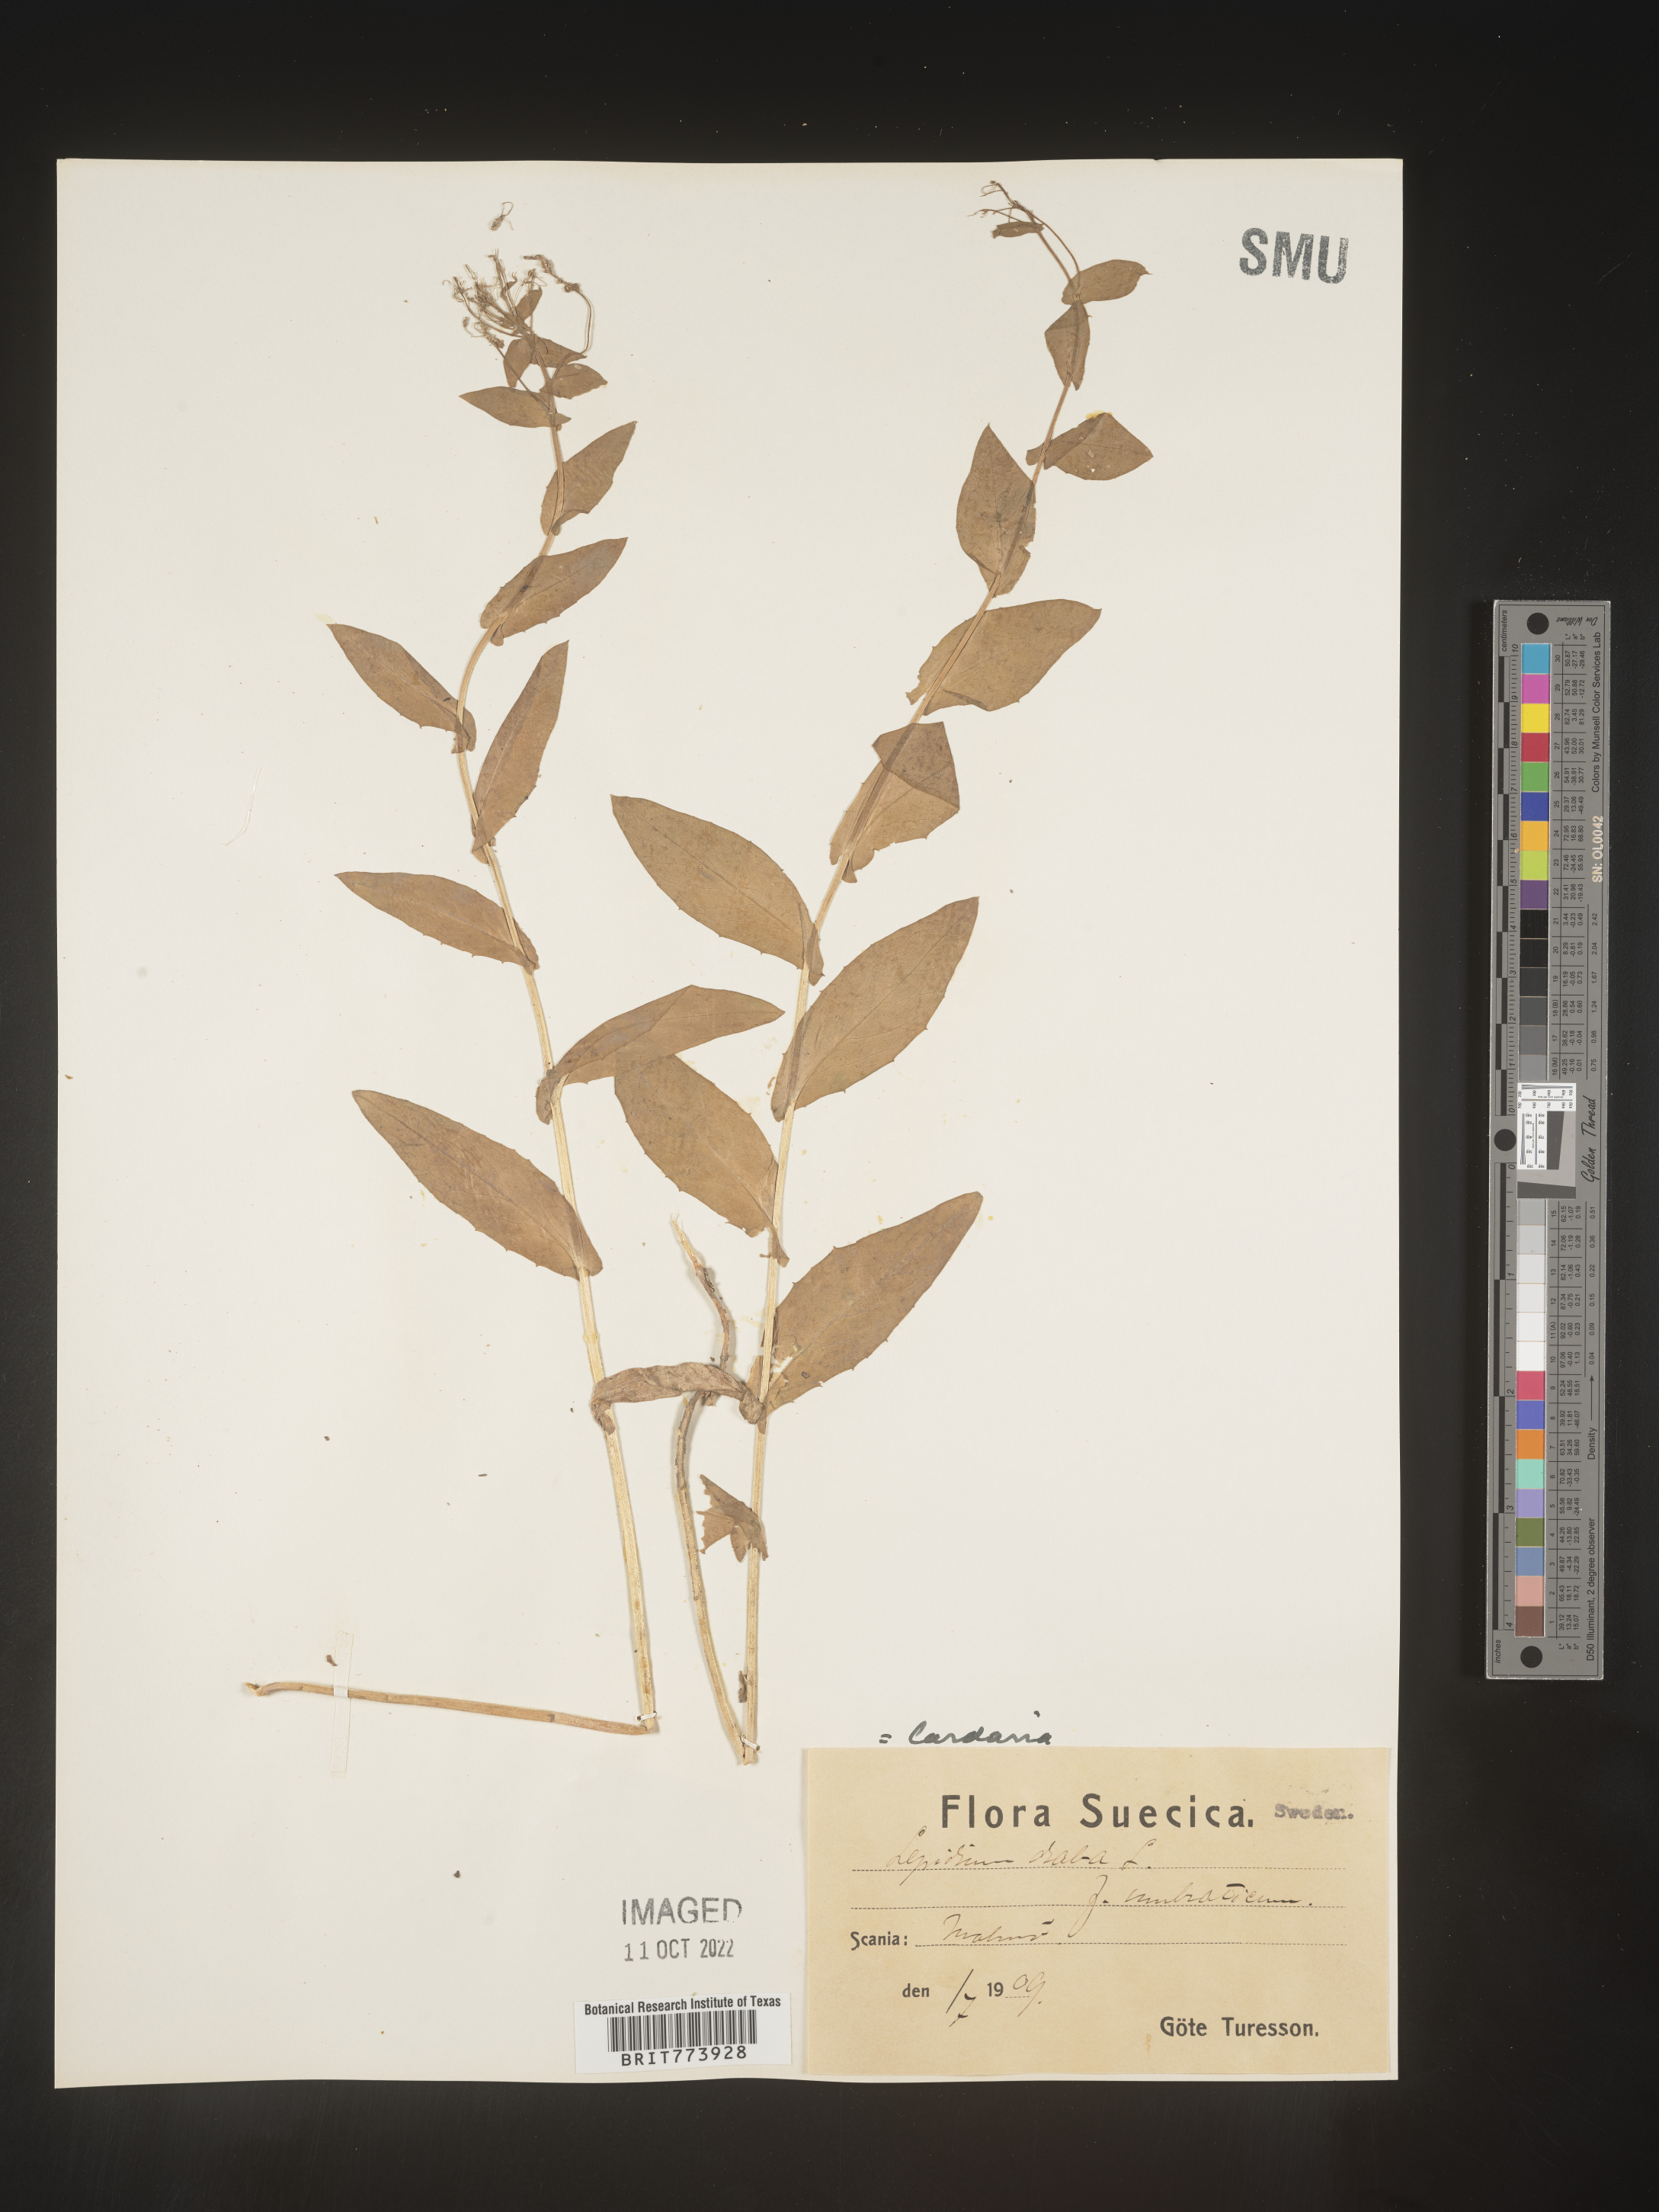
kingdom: Plantae
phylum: Tracheophyta
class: Magnoliopsida
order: Brassicales
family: Brassicaceae
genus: Lepidium
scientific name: Lepidium
